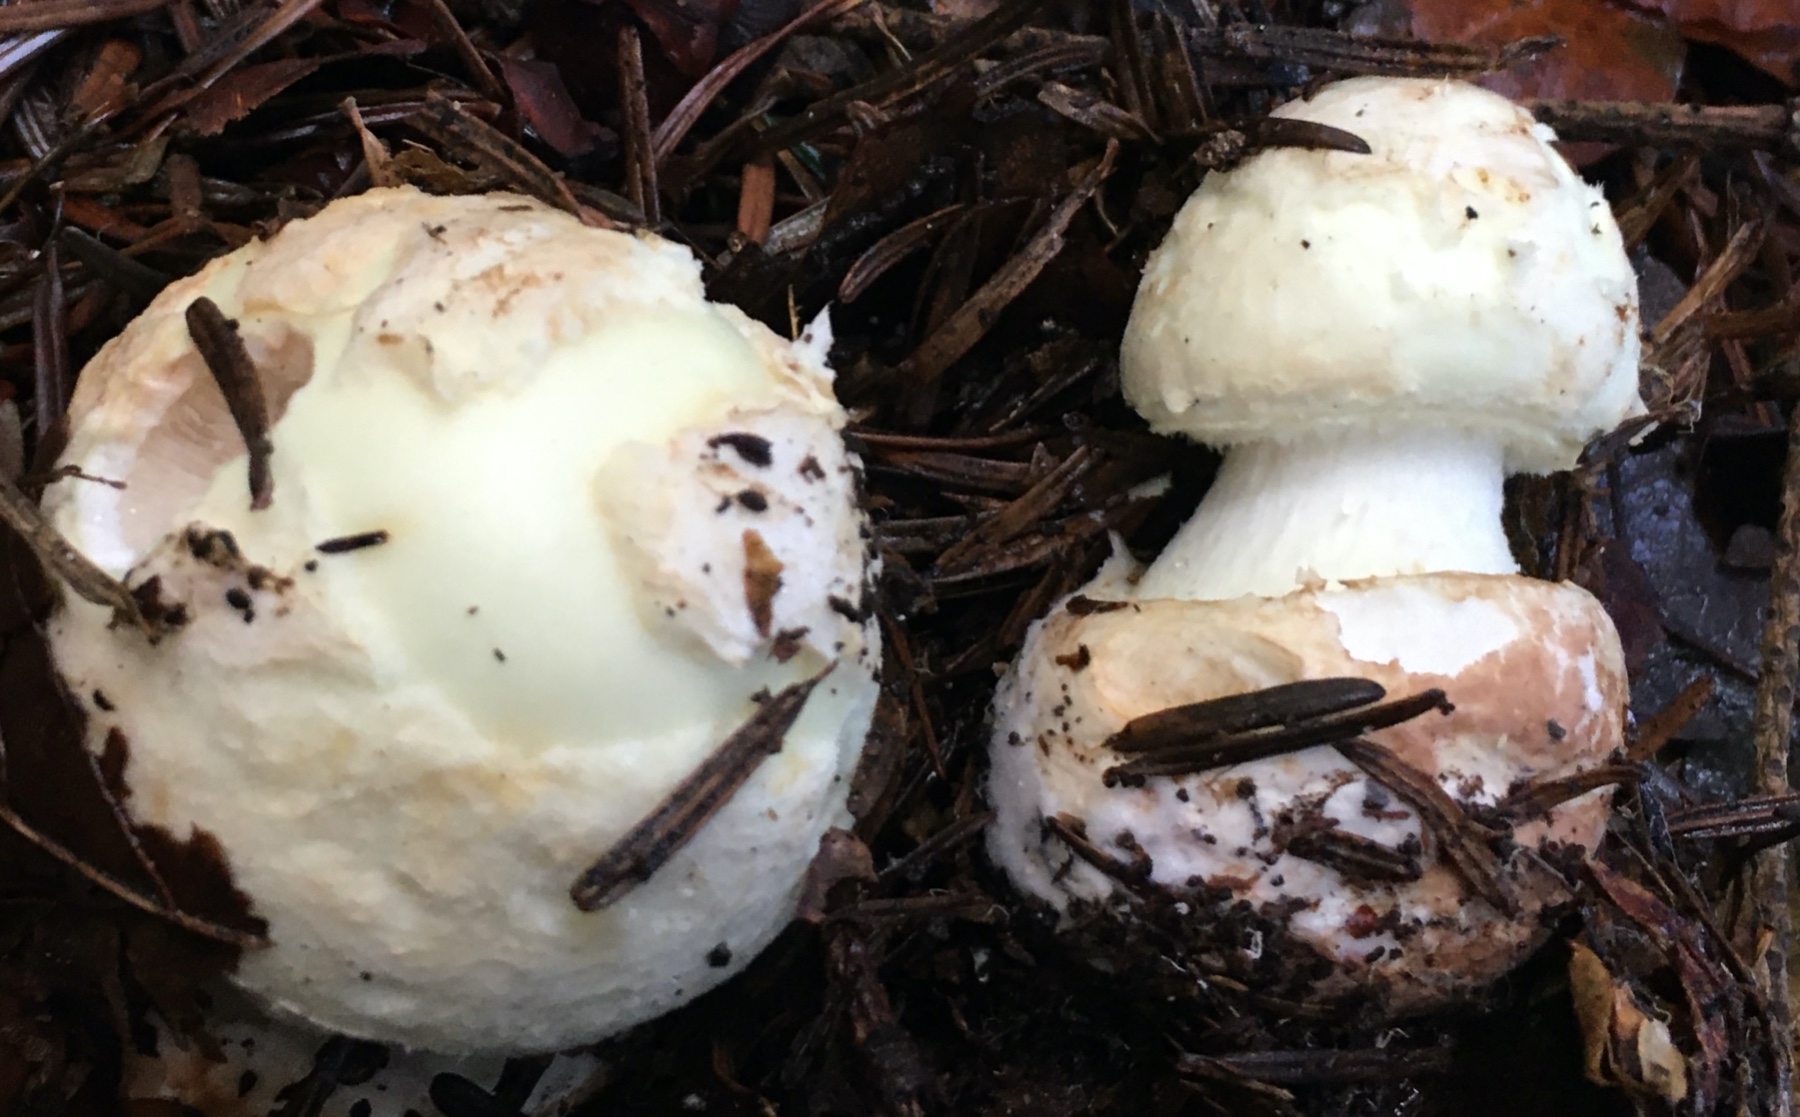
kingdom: Fungi
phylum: Basidiomycota
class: Agaricomycetes
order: Agaricales
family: Amanitaceae
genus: Amanita
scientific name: Amanita citrina
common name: kugleknoldet fluesvamp
